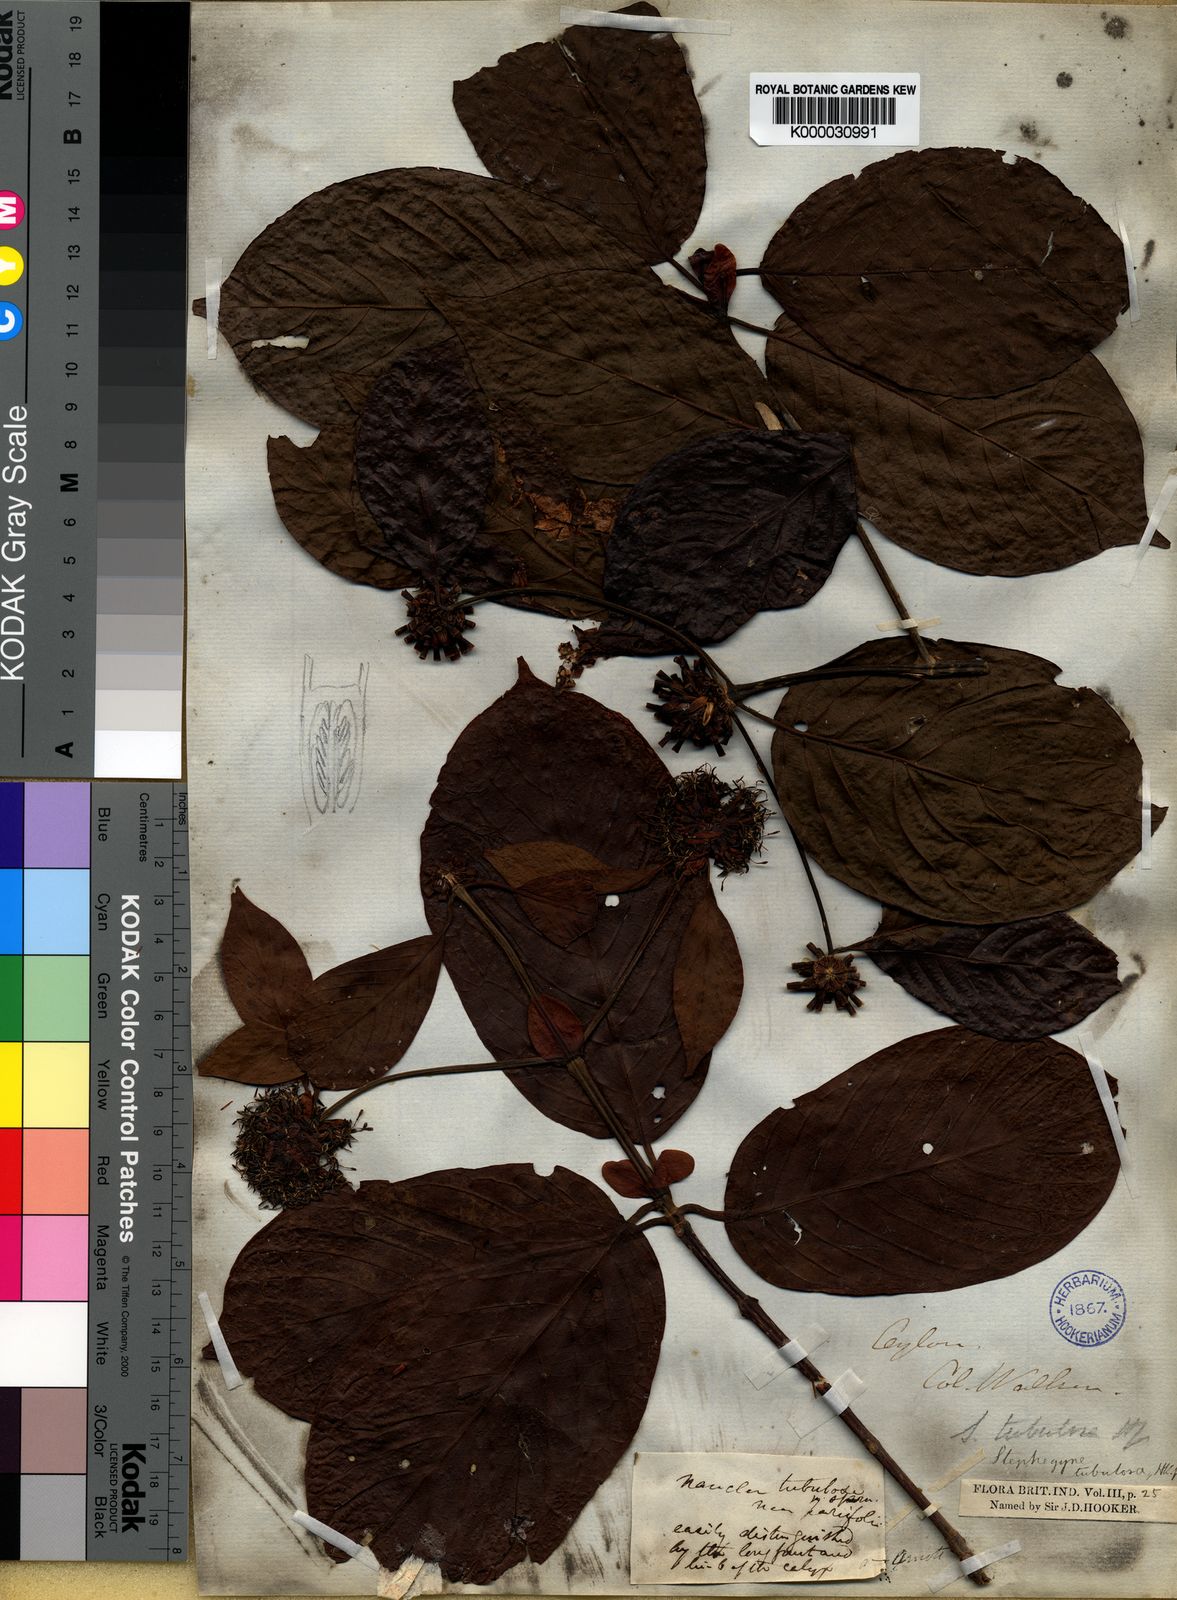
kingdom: Plantae
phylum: Tracheophyta
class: Magnoliopsida
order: Gentianales
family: Rubiaceae
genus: Mitragyna
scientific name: Mitragyna tubulosa
